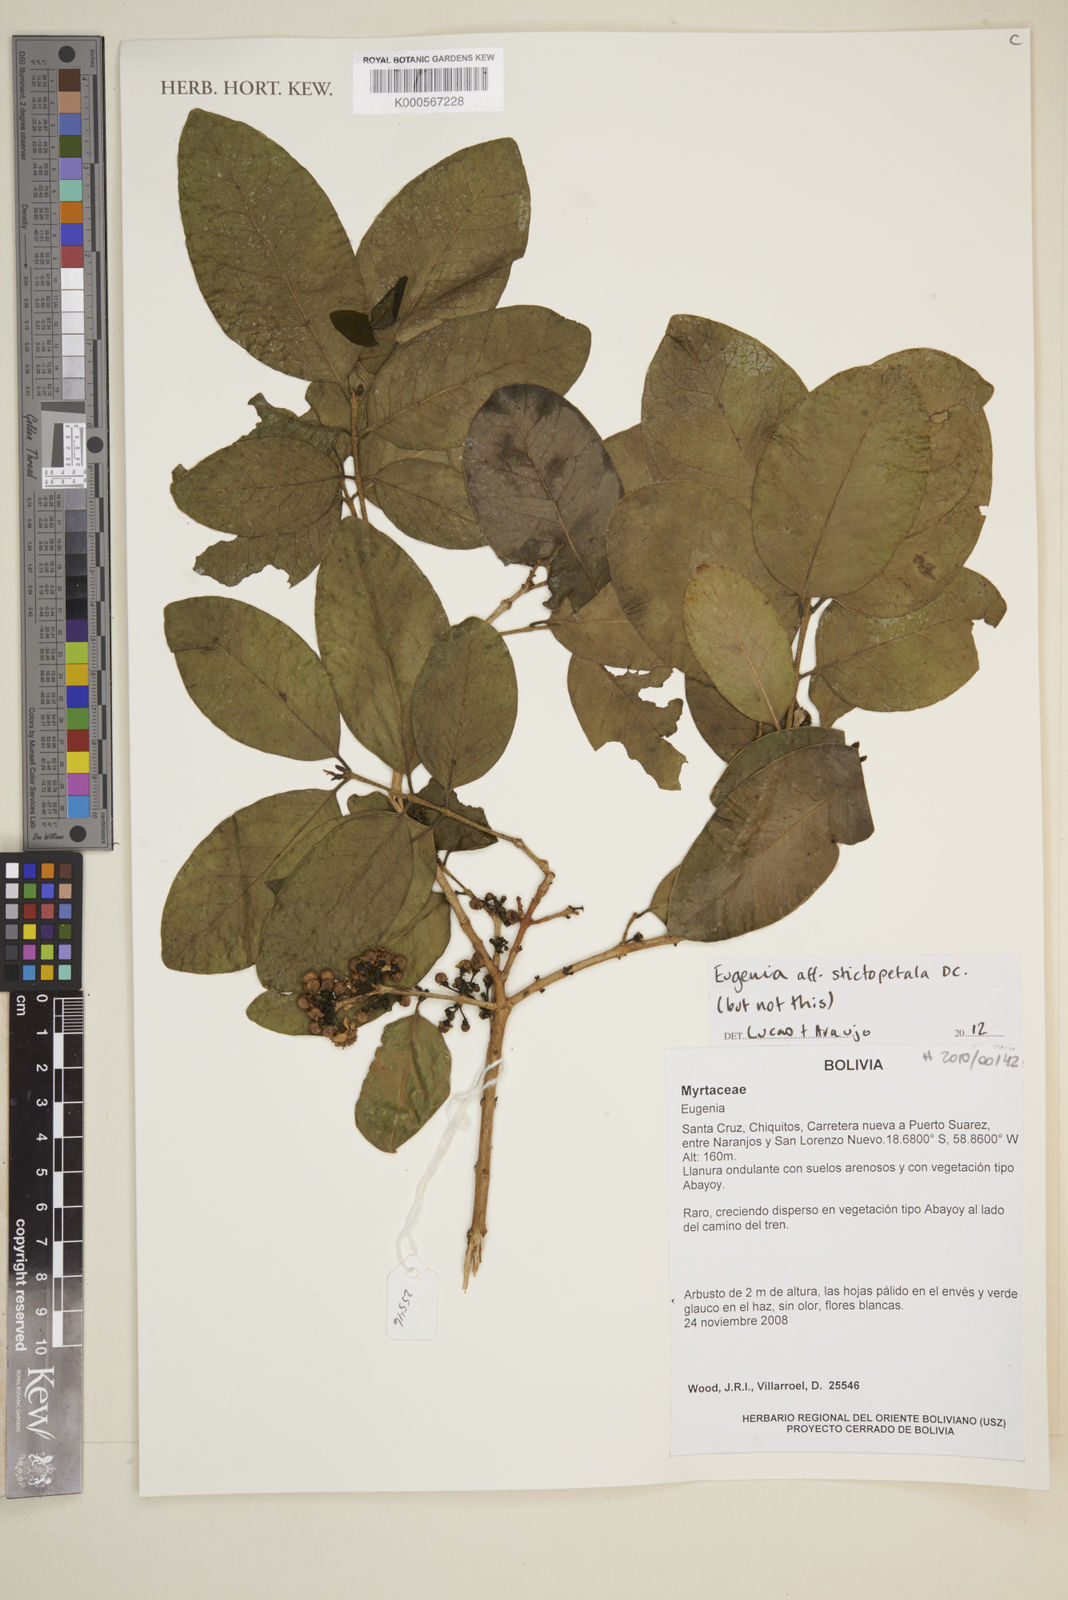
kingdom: Plantae
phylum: Tracheophyta
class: Magnoliopsida
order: Myrtales
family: Myrtaceae
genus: Eugenia
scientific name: Eugenia stictopetala
